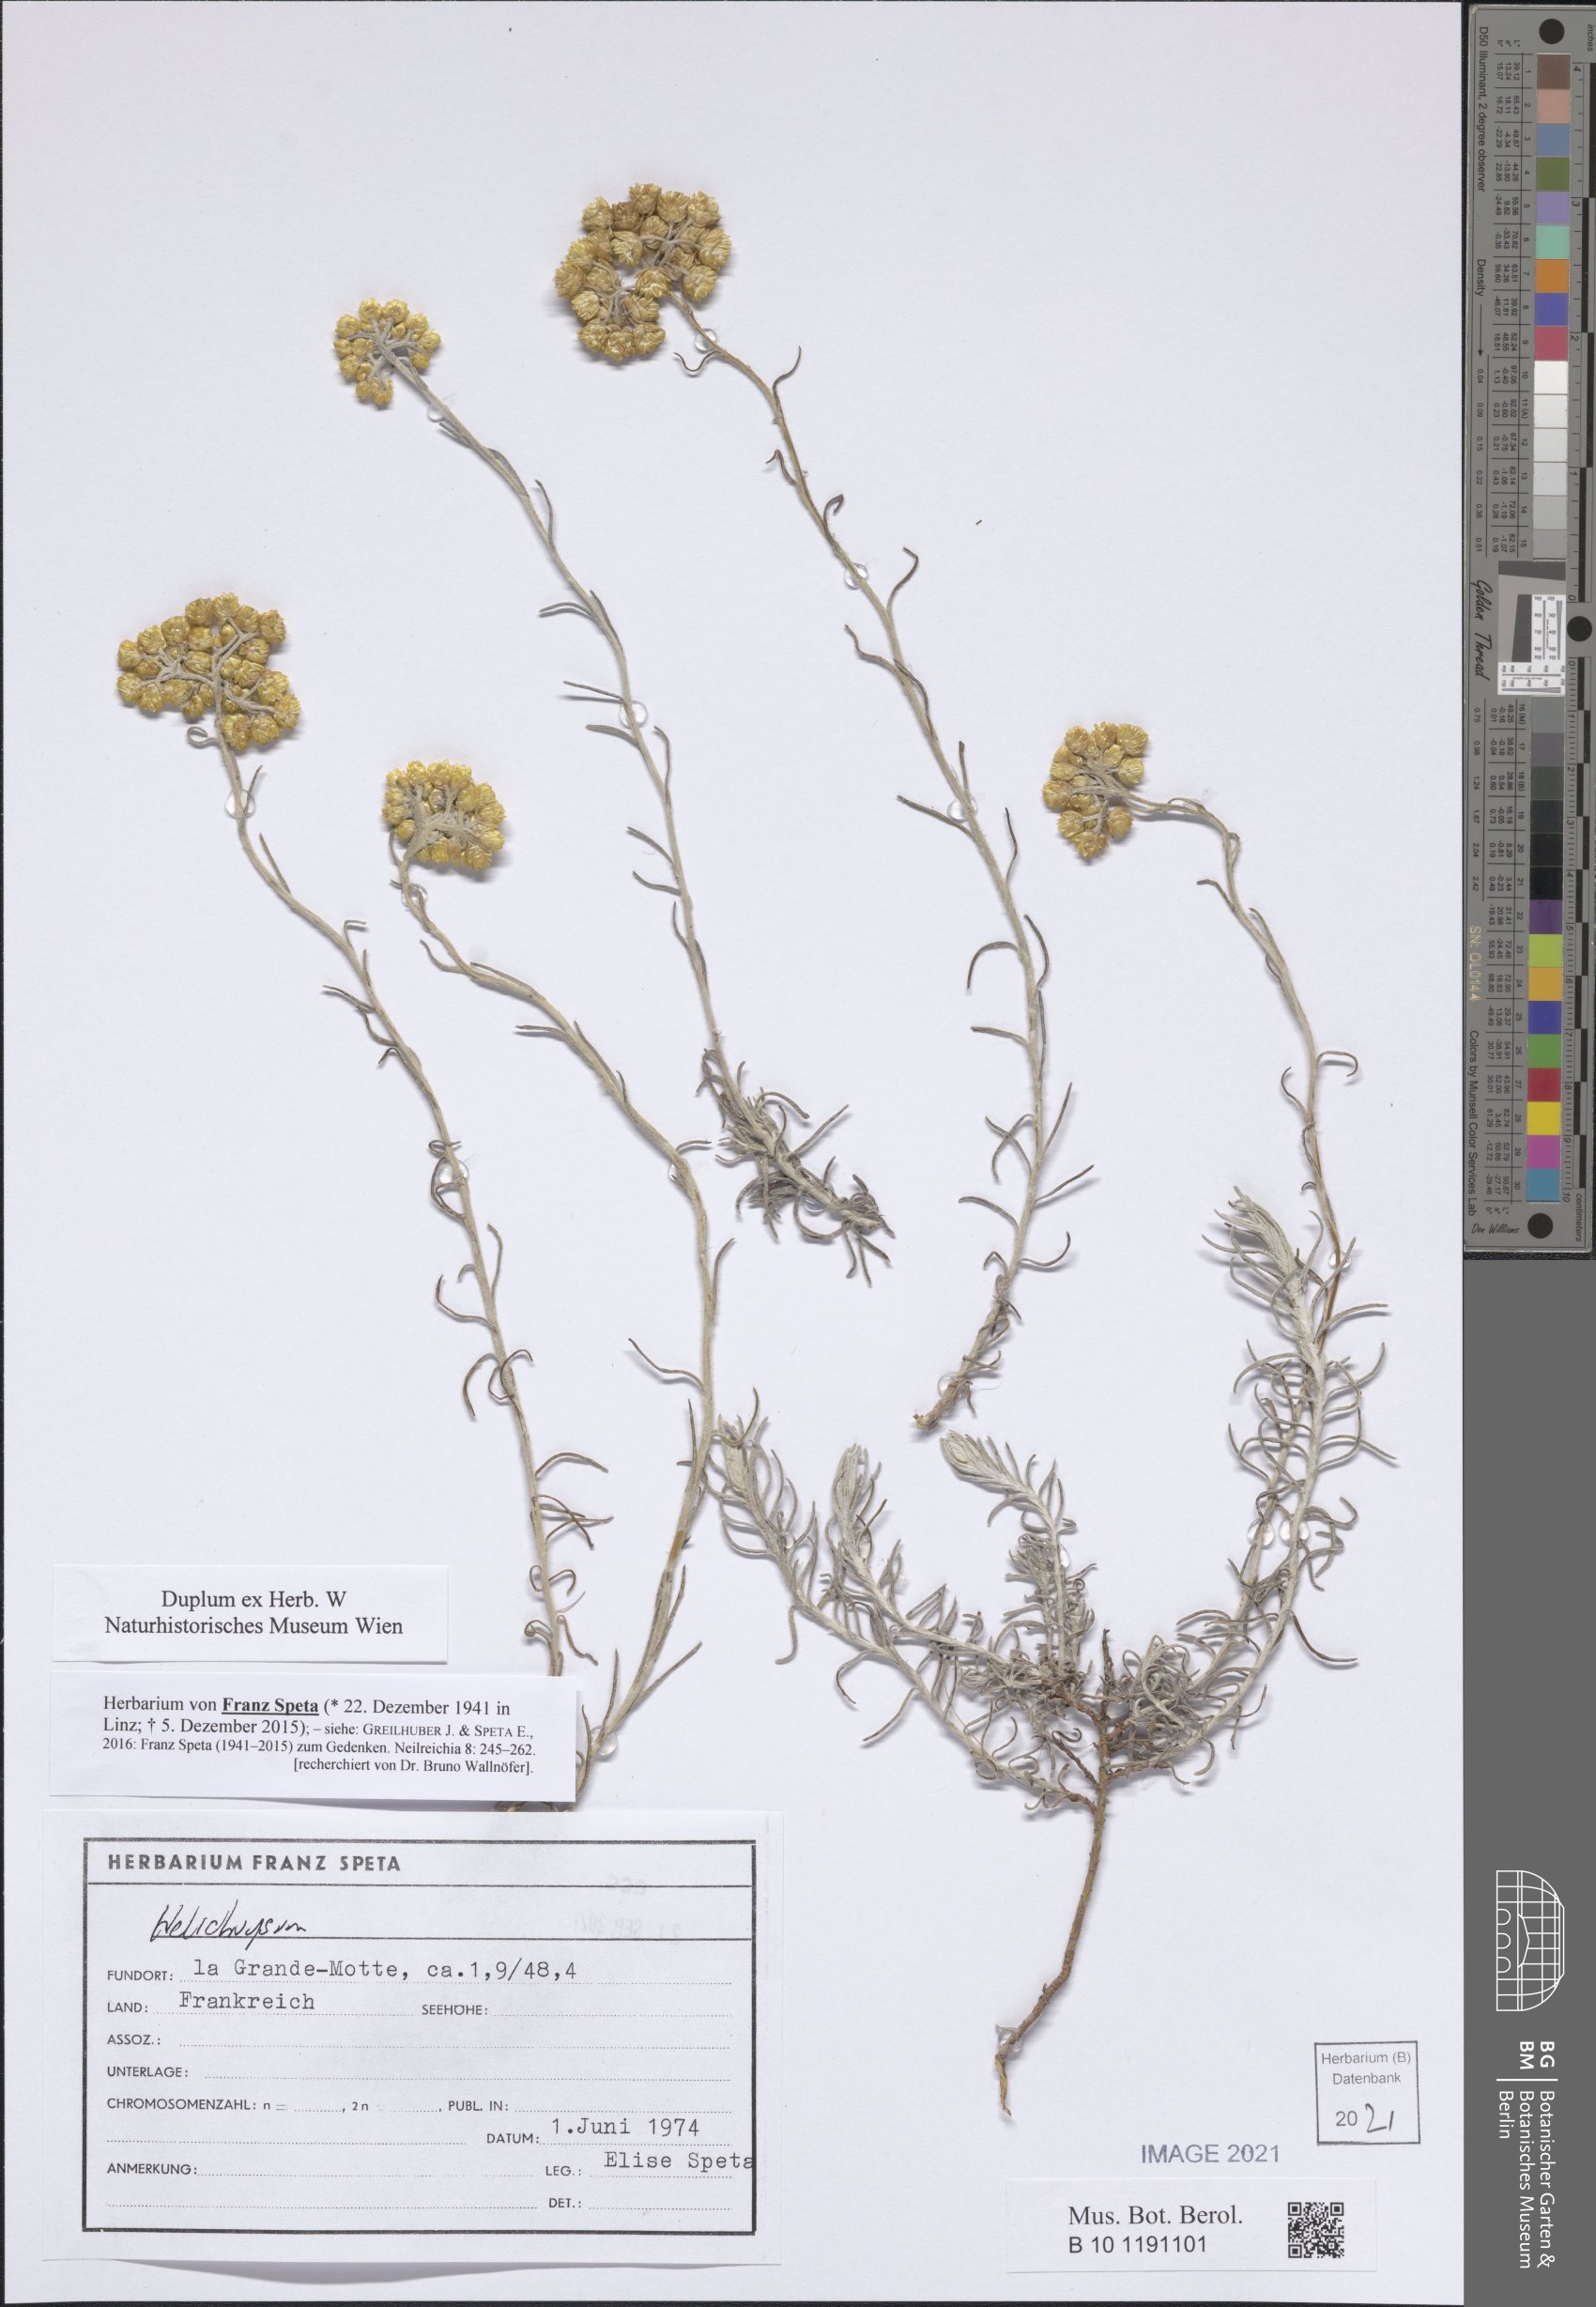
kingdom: Plantae
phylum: Tracheophyta
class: Magnoliopsida
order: Asterales
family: Asteraceae
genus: Helichrysum
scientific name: Helichrysum
